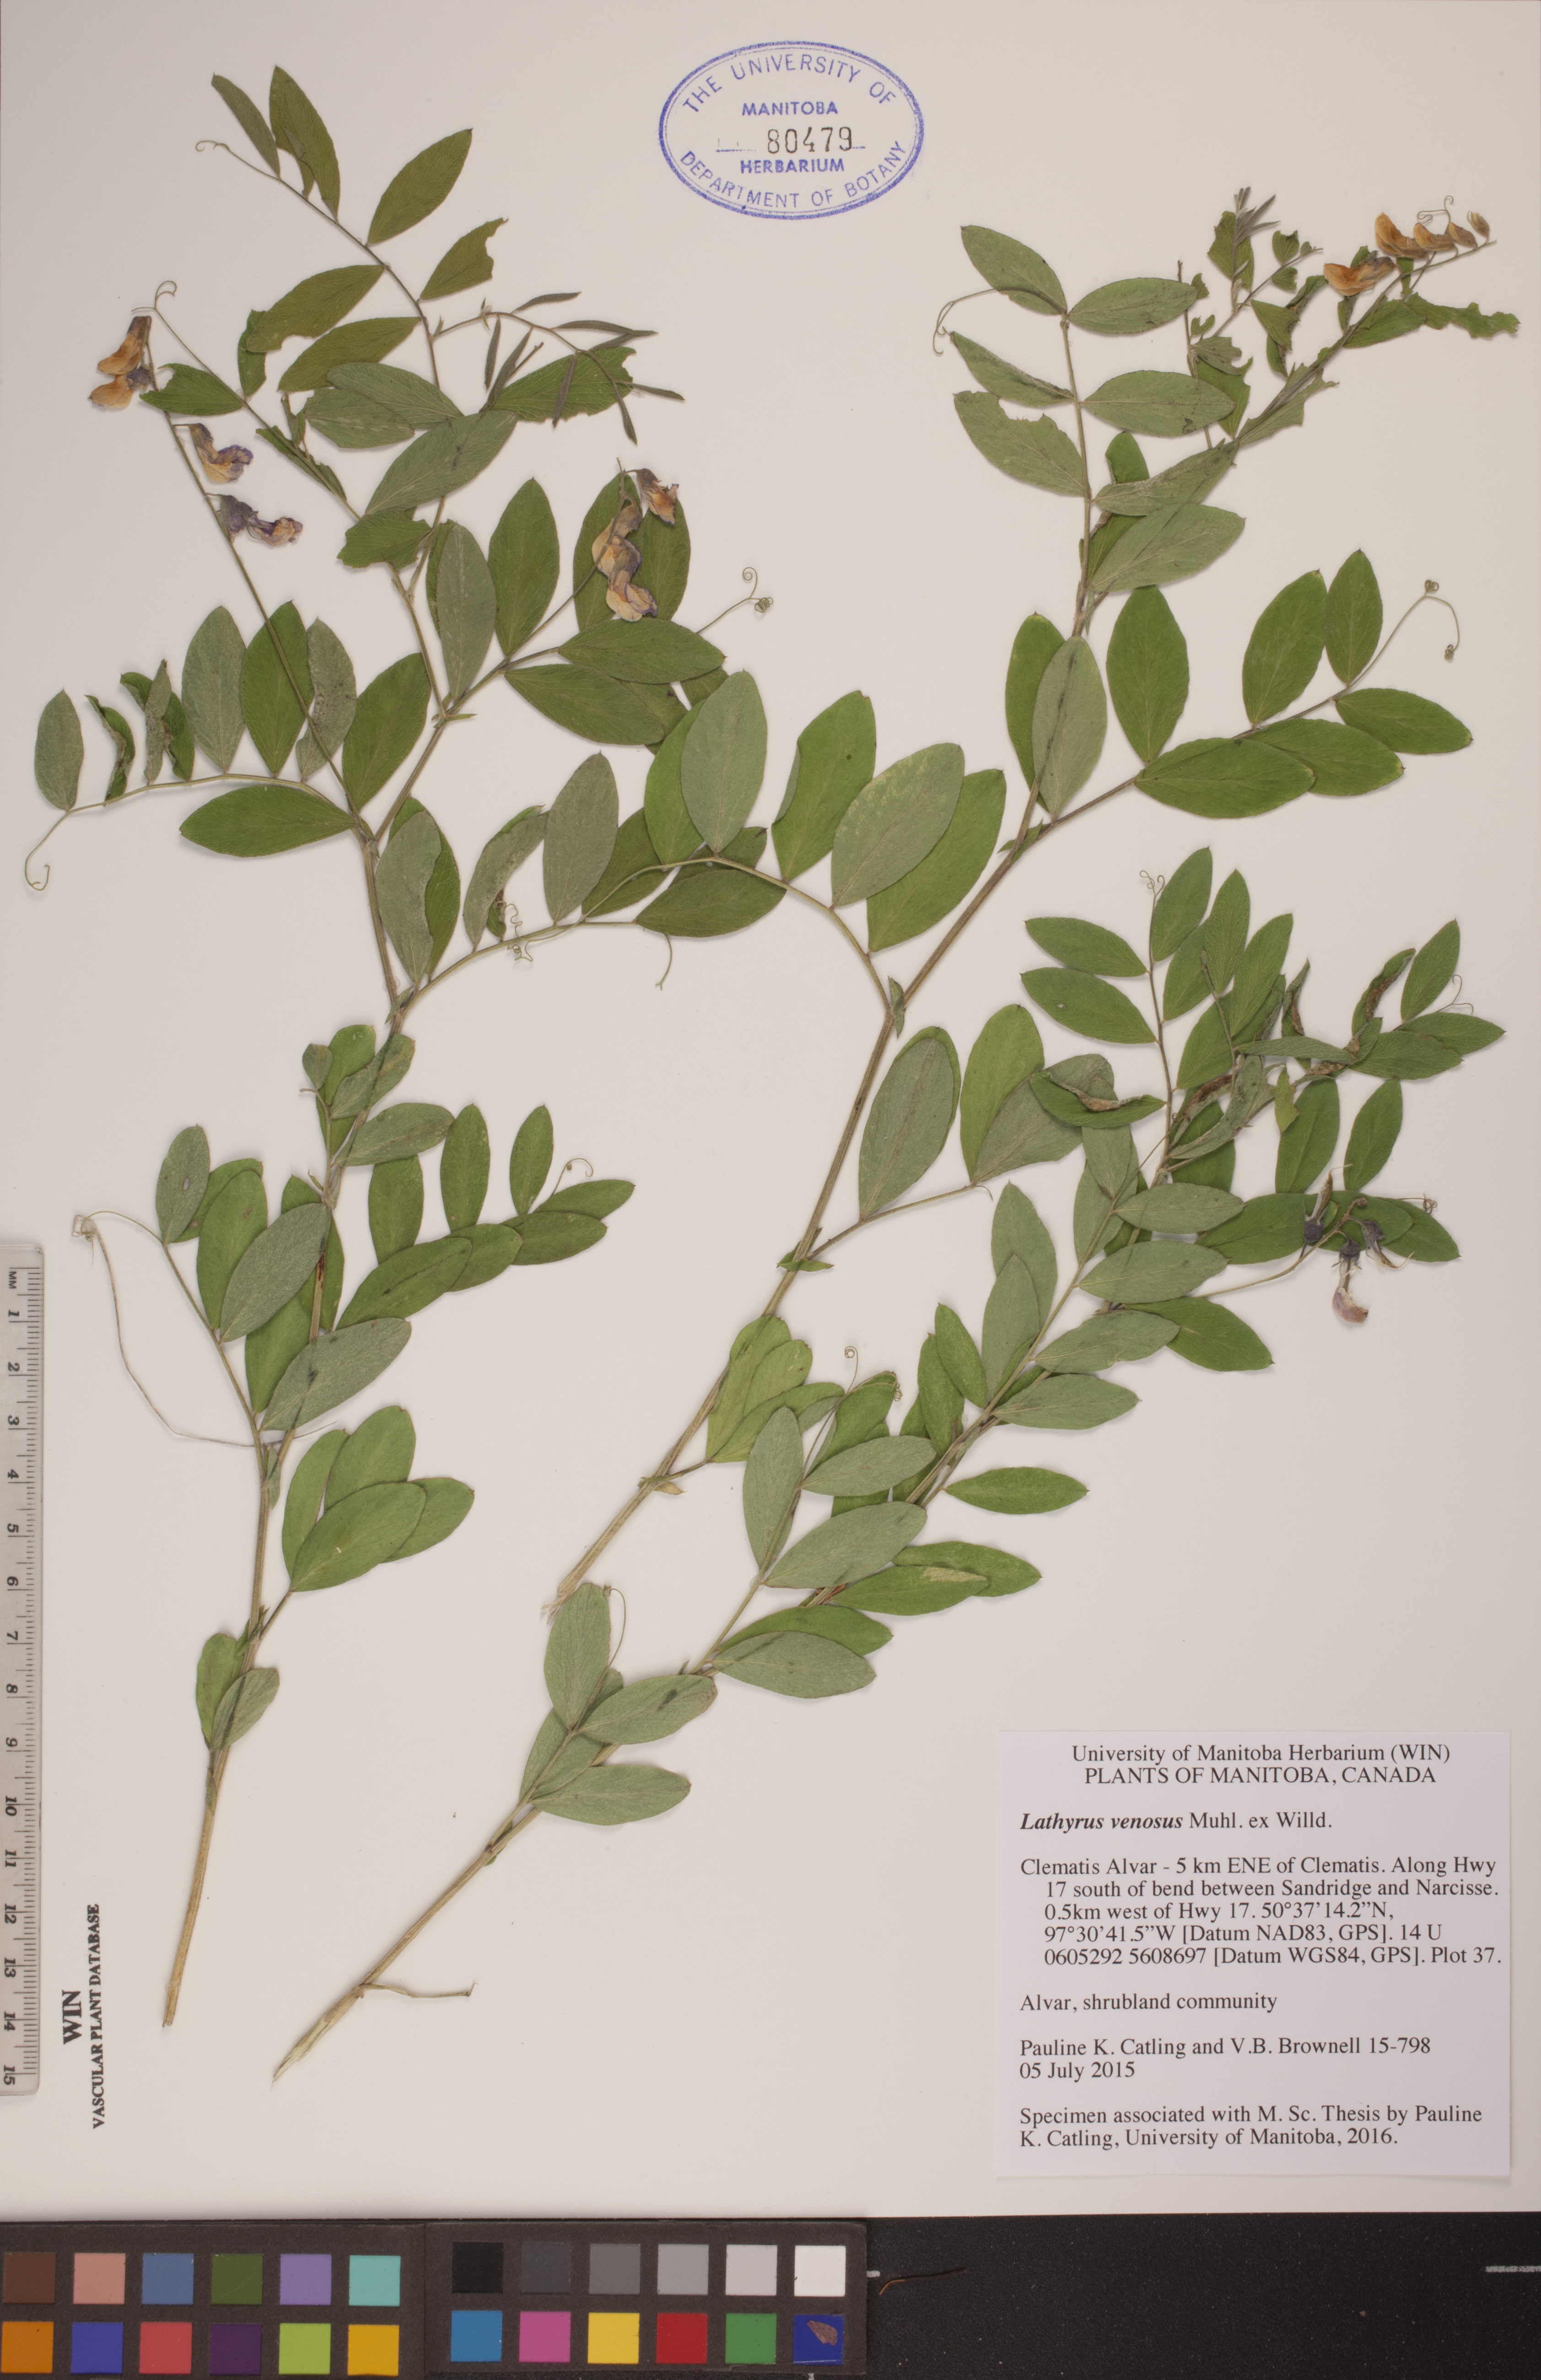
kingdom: Plantae
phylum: Tracheophyta
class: Magnoliopsida
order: Fabales
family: Fabaceae
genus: Lathyrus
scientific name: Lathyrus venosus
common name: Forest-pea
